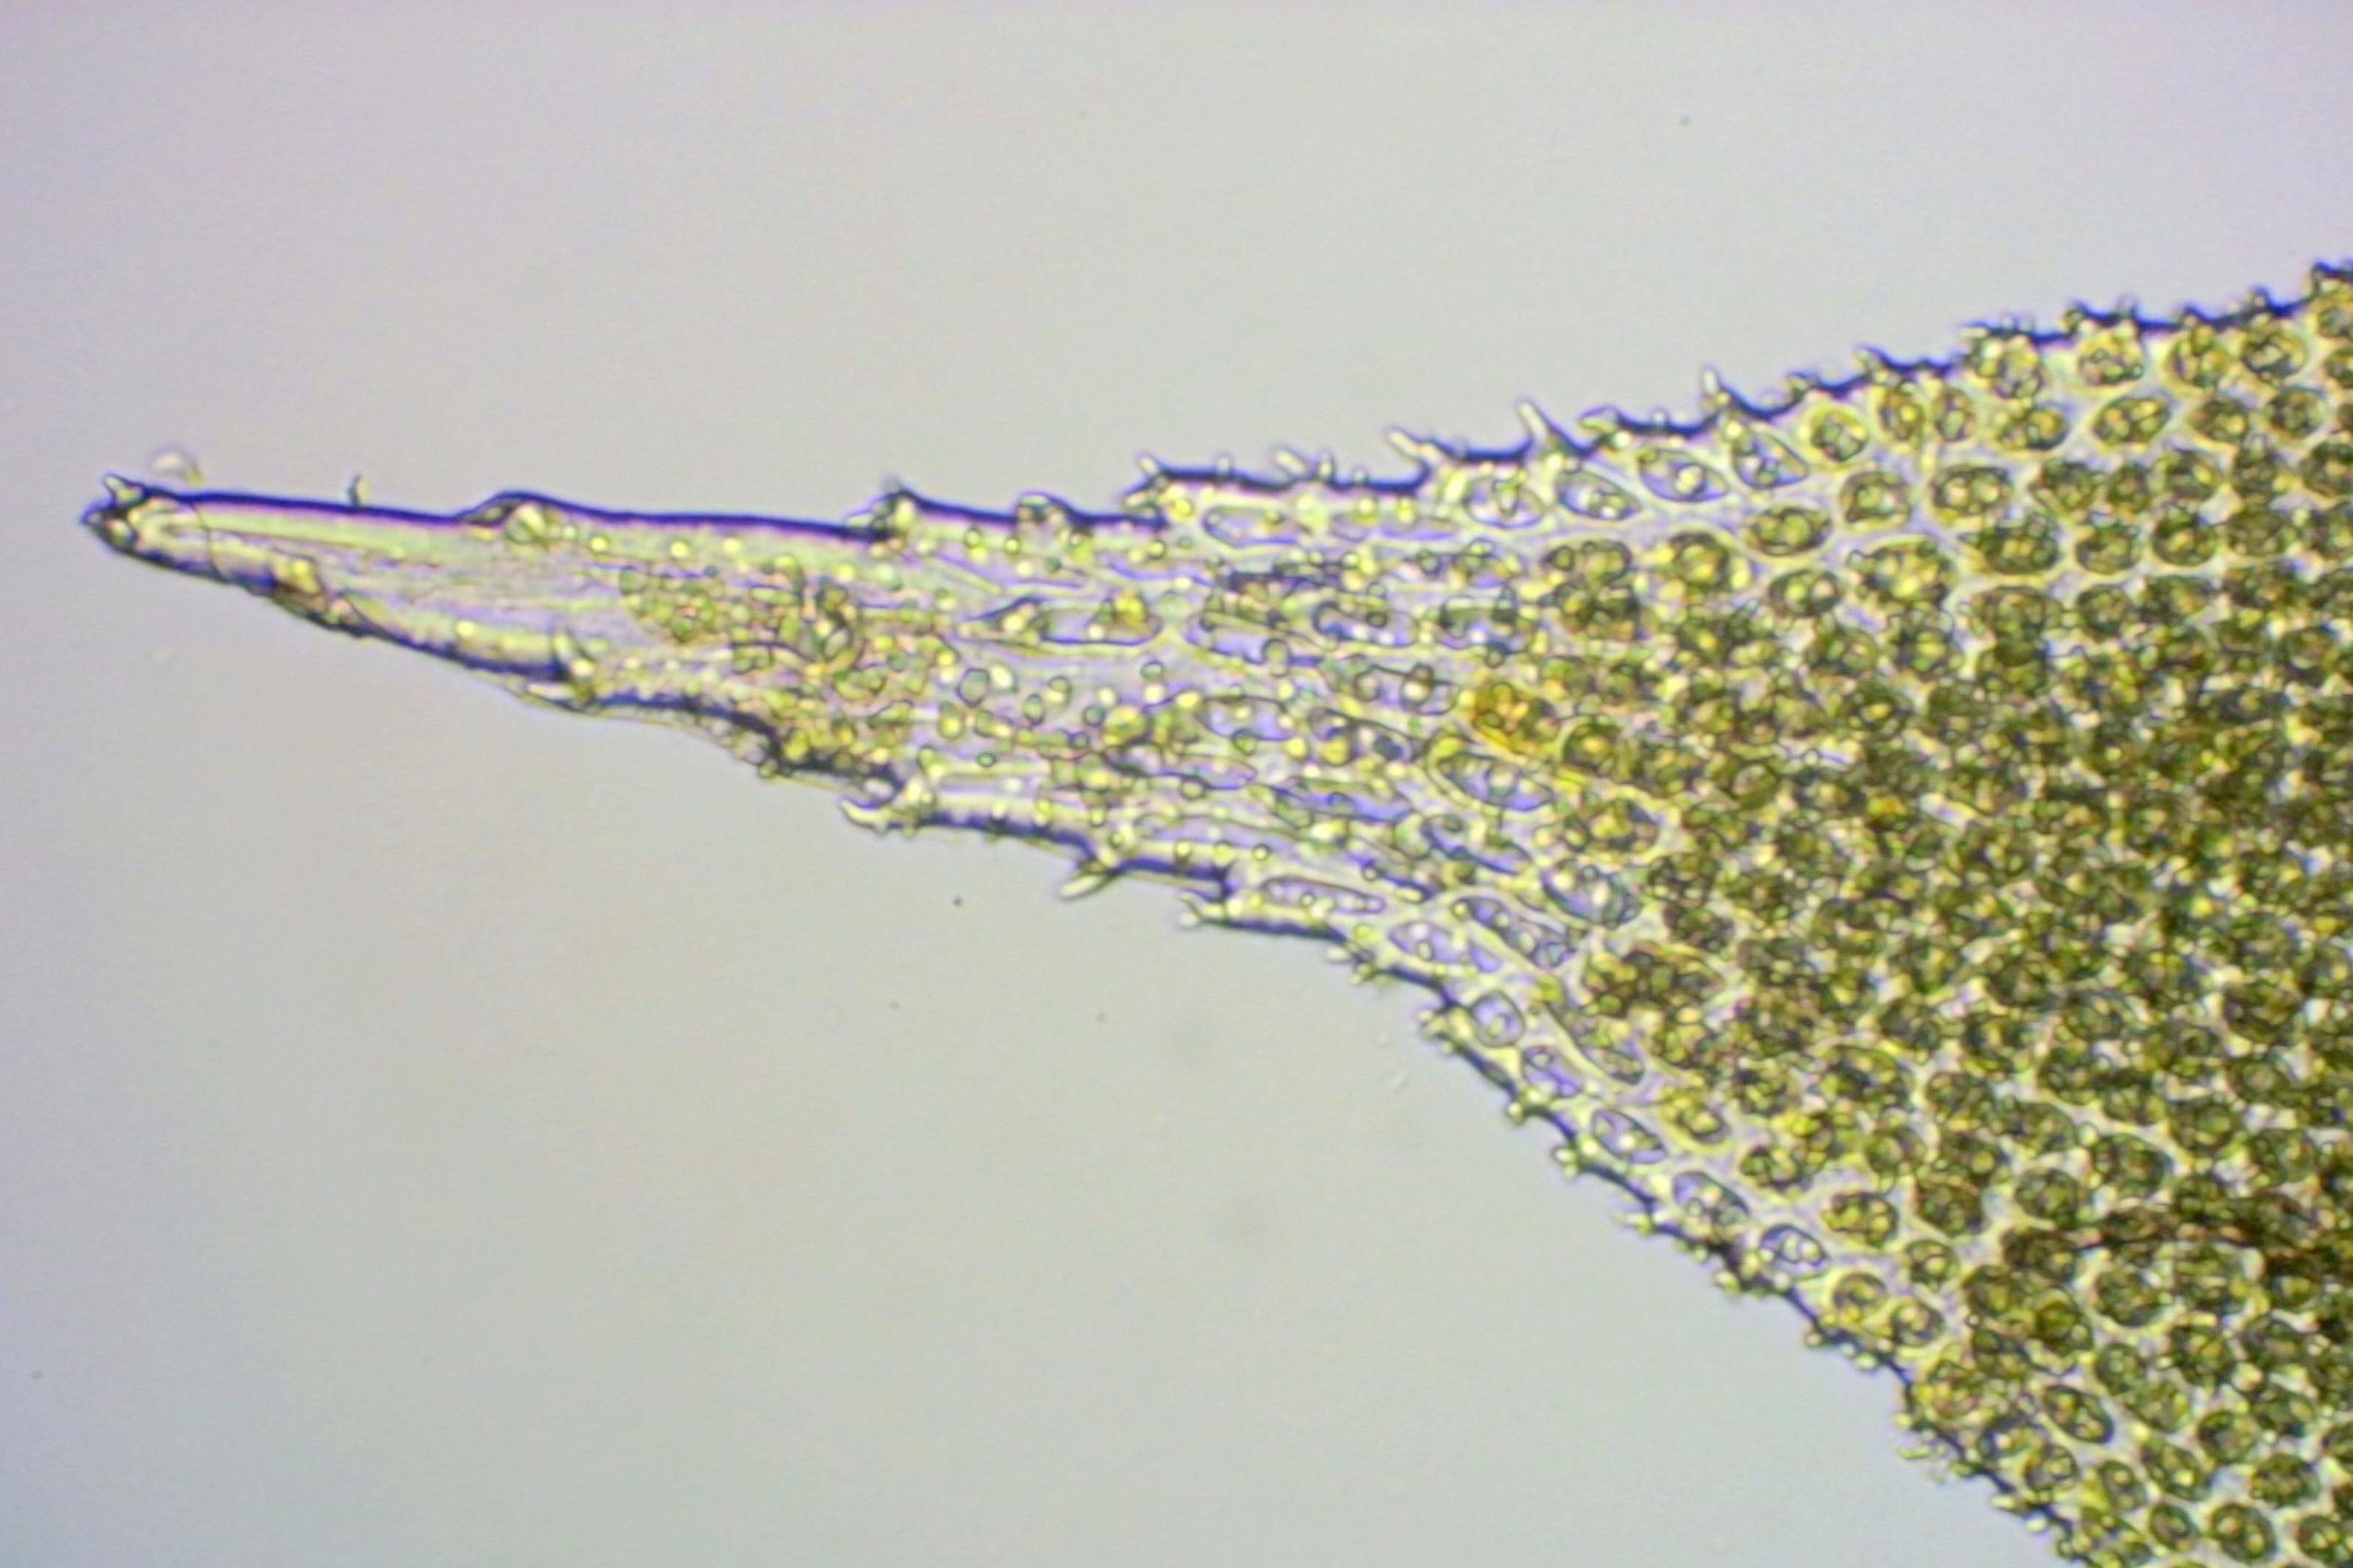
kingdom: Plantae
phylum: Bryophyta
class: Bryopsida
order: Hedwigiales
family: Hedwigiaceae
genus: Hedwigia
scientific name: Hedwigia ciliata
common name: Hvidspidset hedwigia
